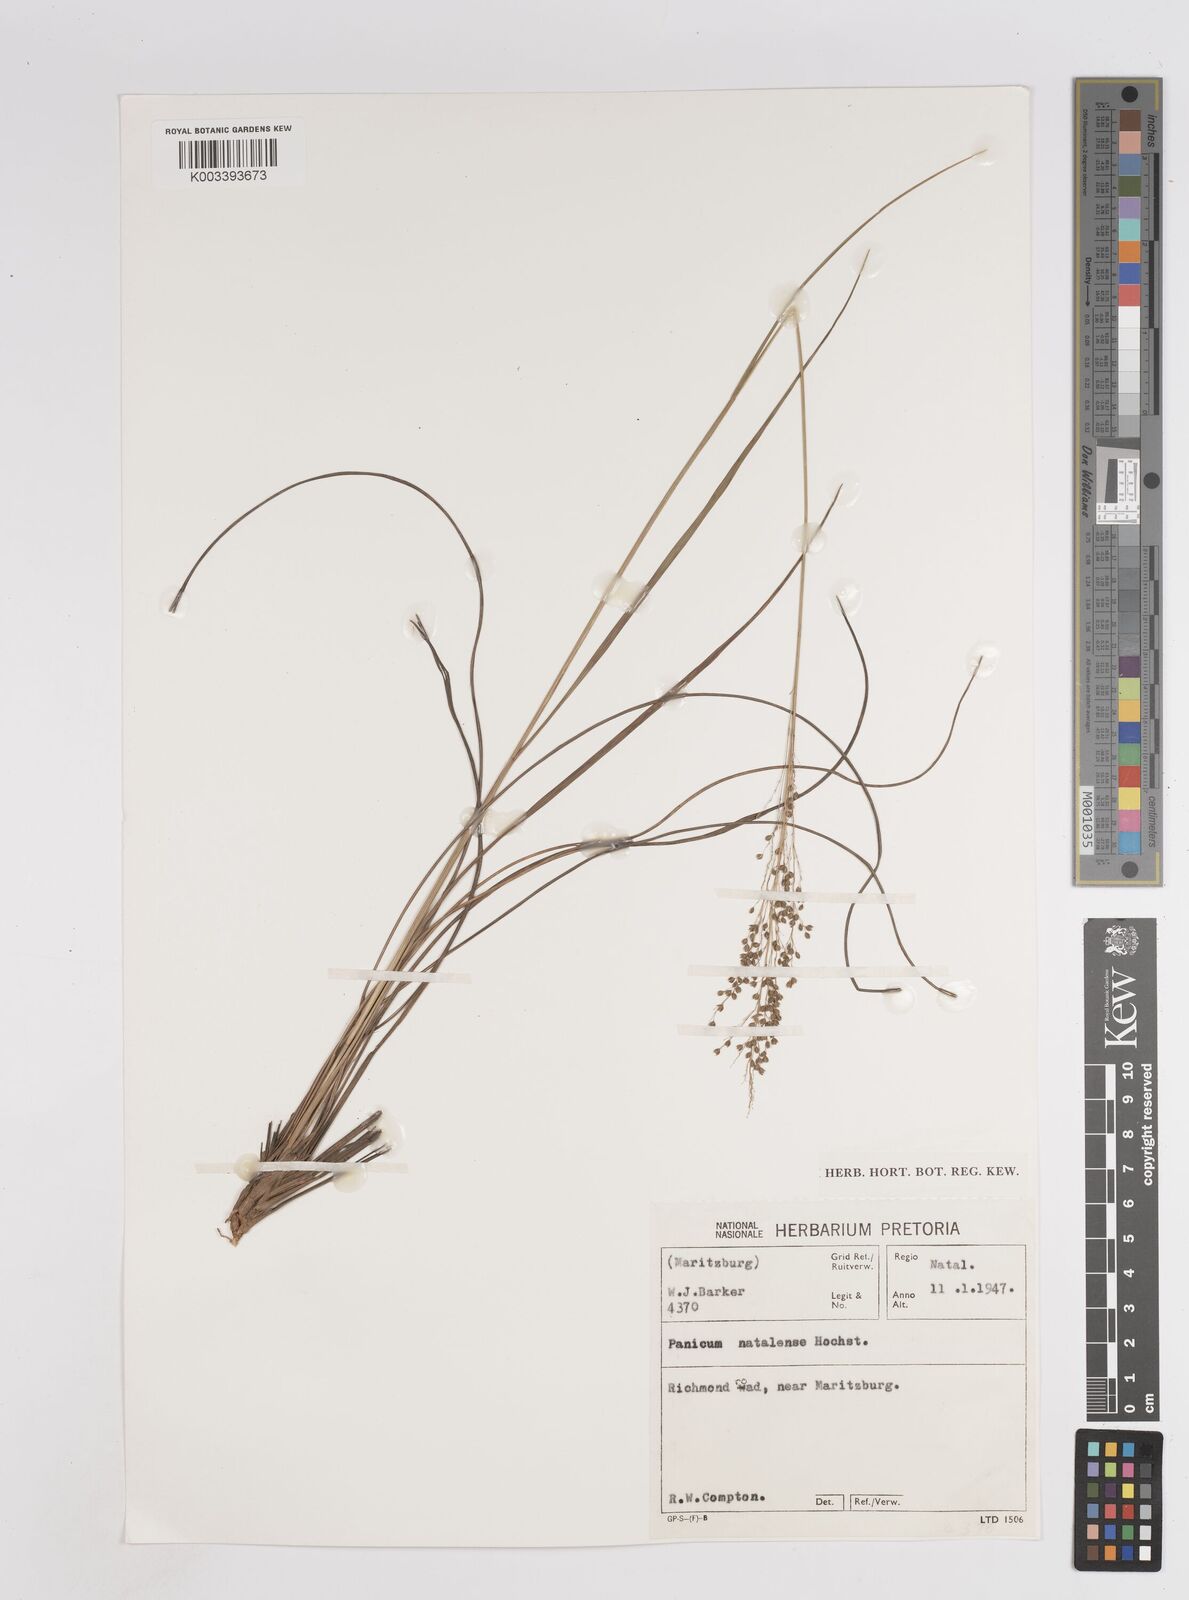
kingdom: Plantae
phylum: Tracheophyta
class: Liliopsida
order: Poales
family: Poaceae
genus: Trichanthecium
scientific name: Trichanthecium natalense
